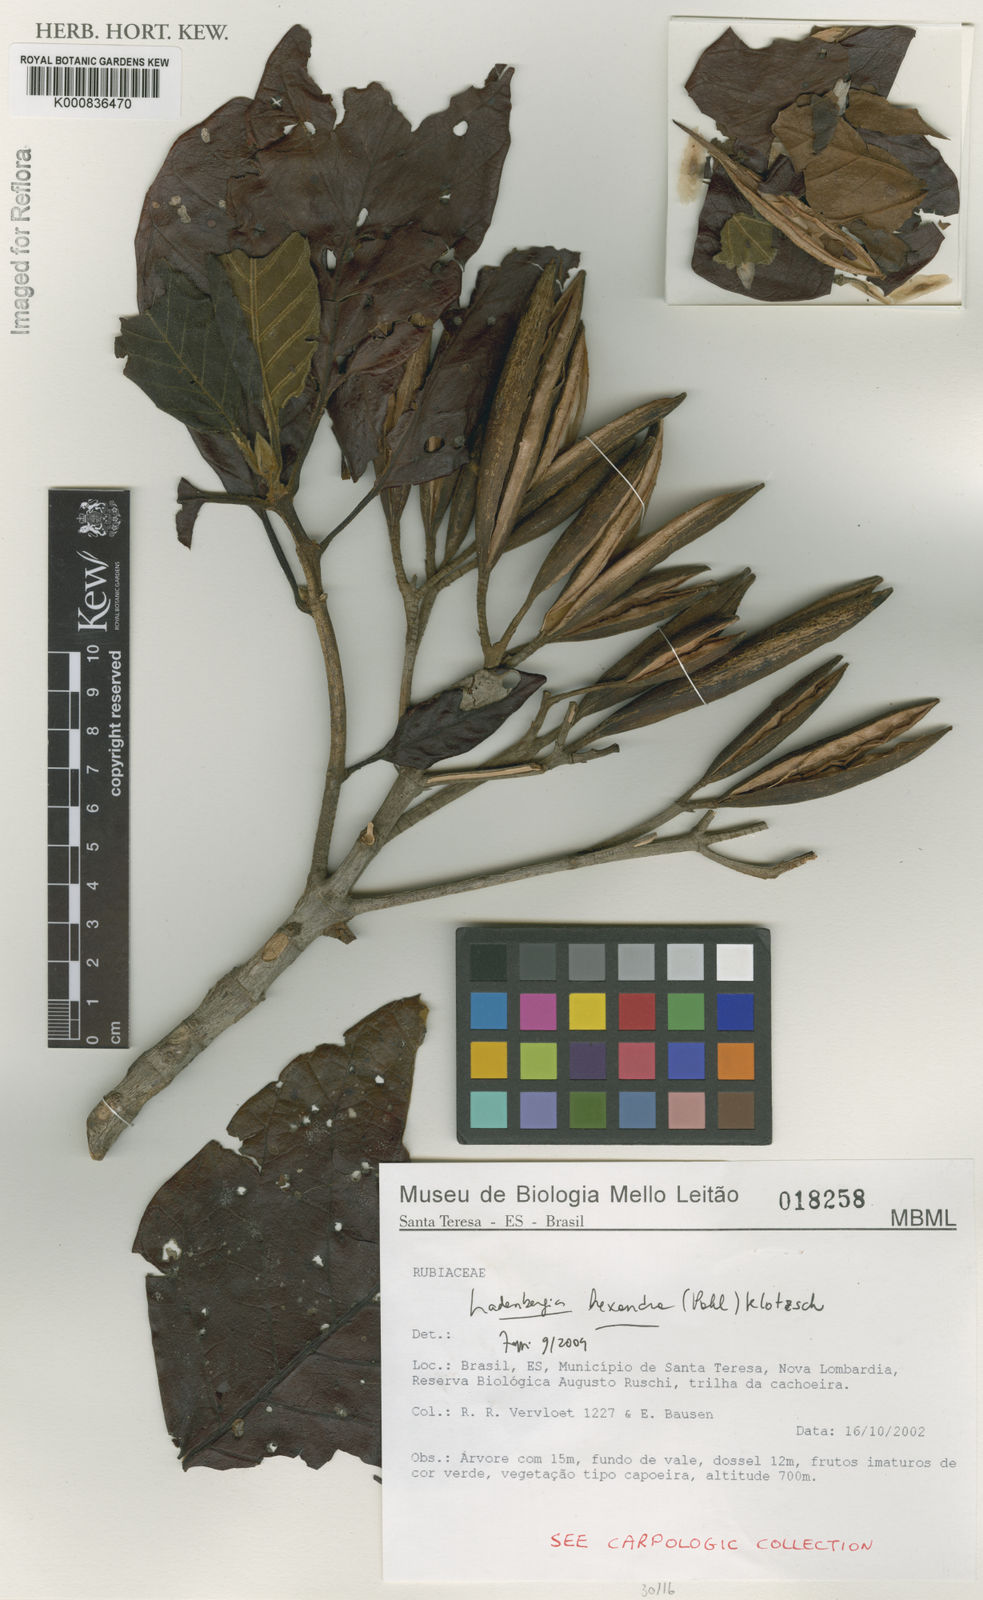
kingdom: Plantae
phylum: Tracheophyta
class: Magnoliopsida
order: Gentianales
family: Rubiaceae
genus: Ladenbergia
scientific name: Ladenbergia hexandra
